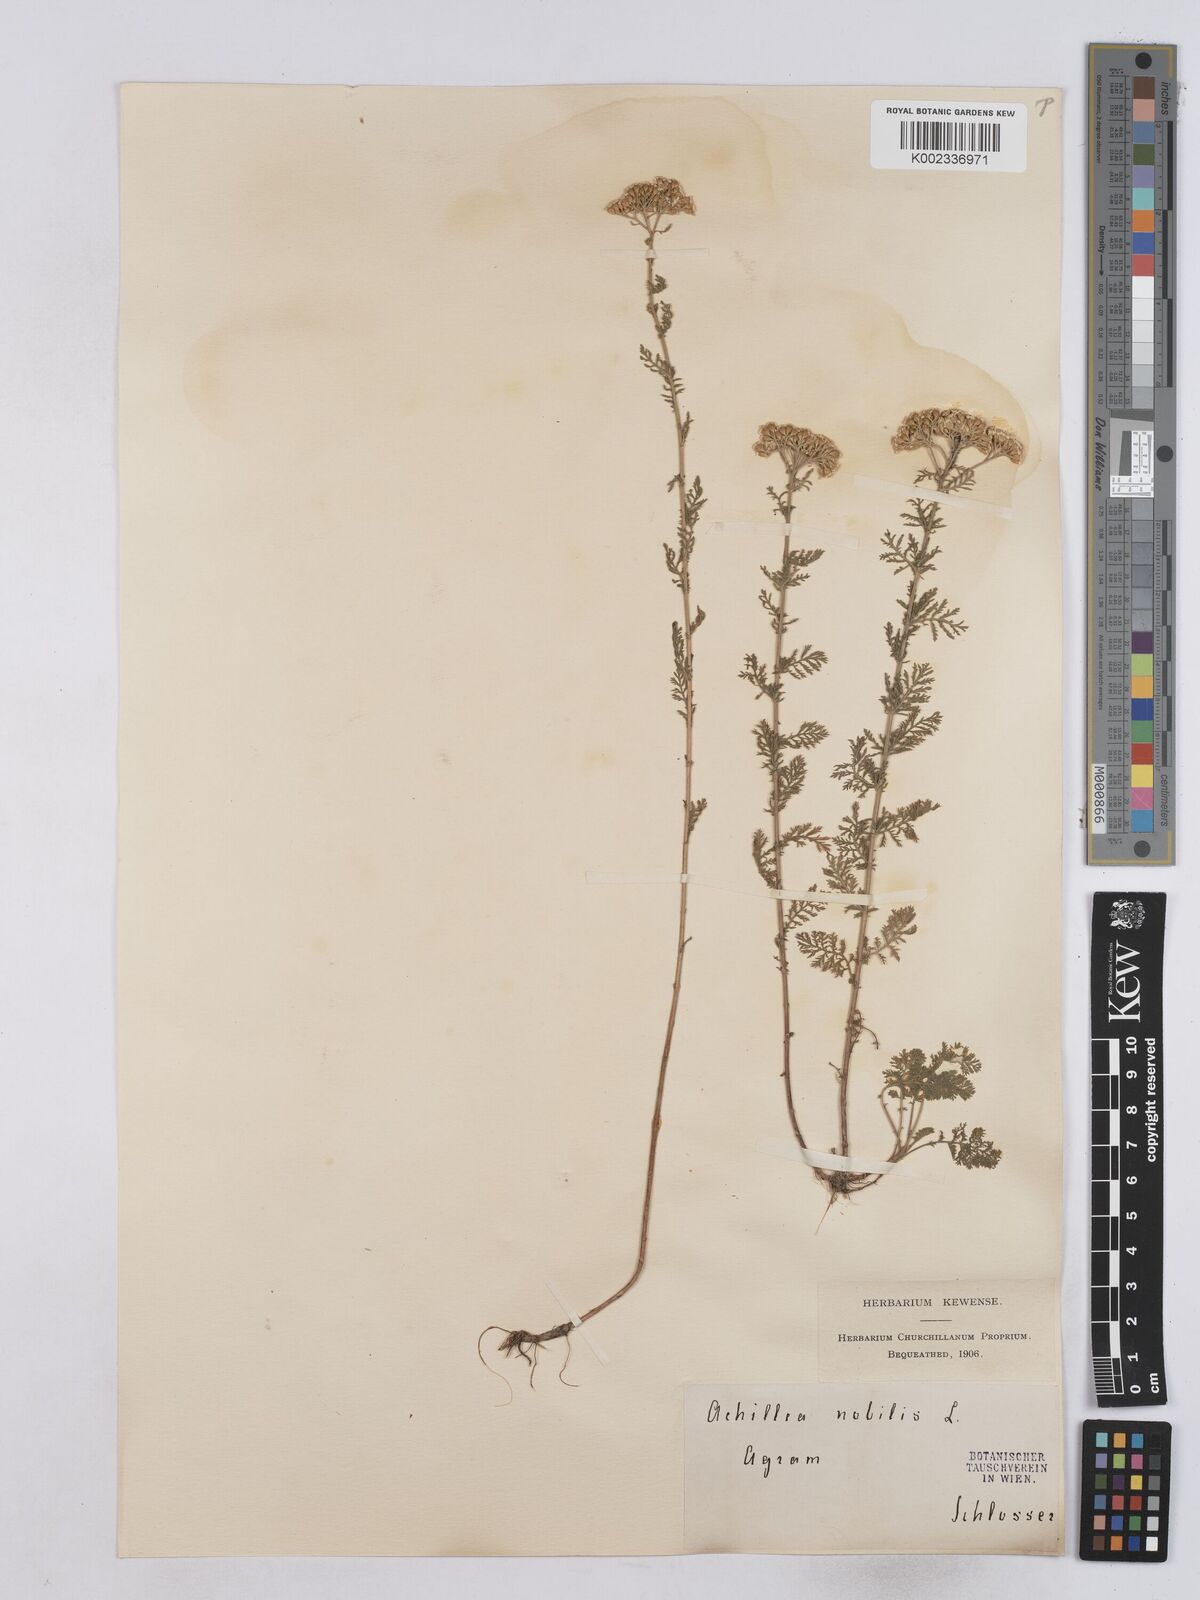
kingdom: Plantae
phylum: Tracheophyta
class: Magnoliopsida
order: Asterales
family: Asteraceae
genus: Achillea
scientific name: Achillea nobilis
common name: Noble yarrow
